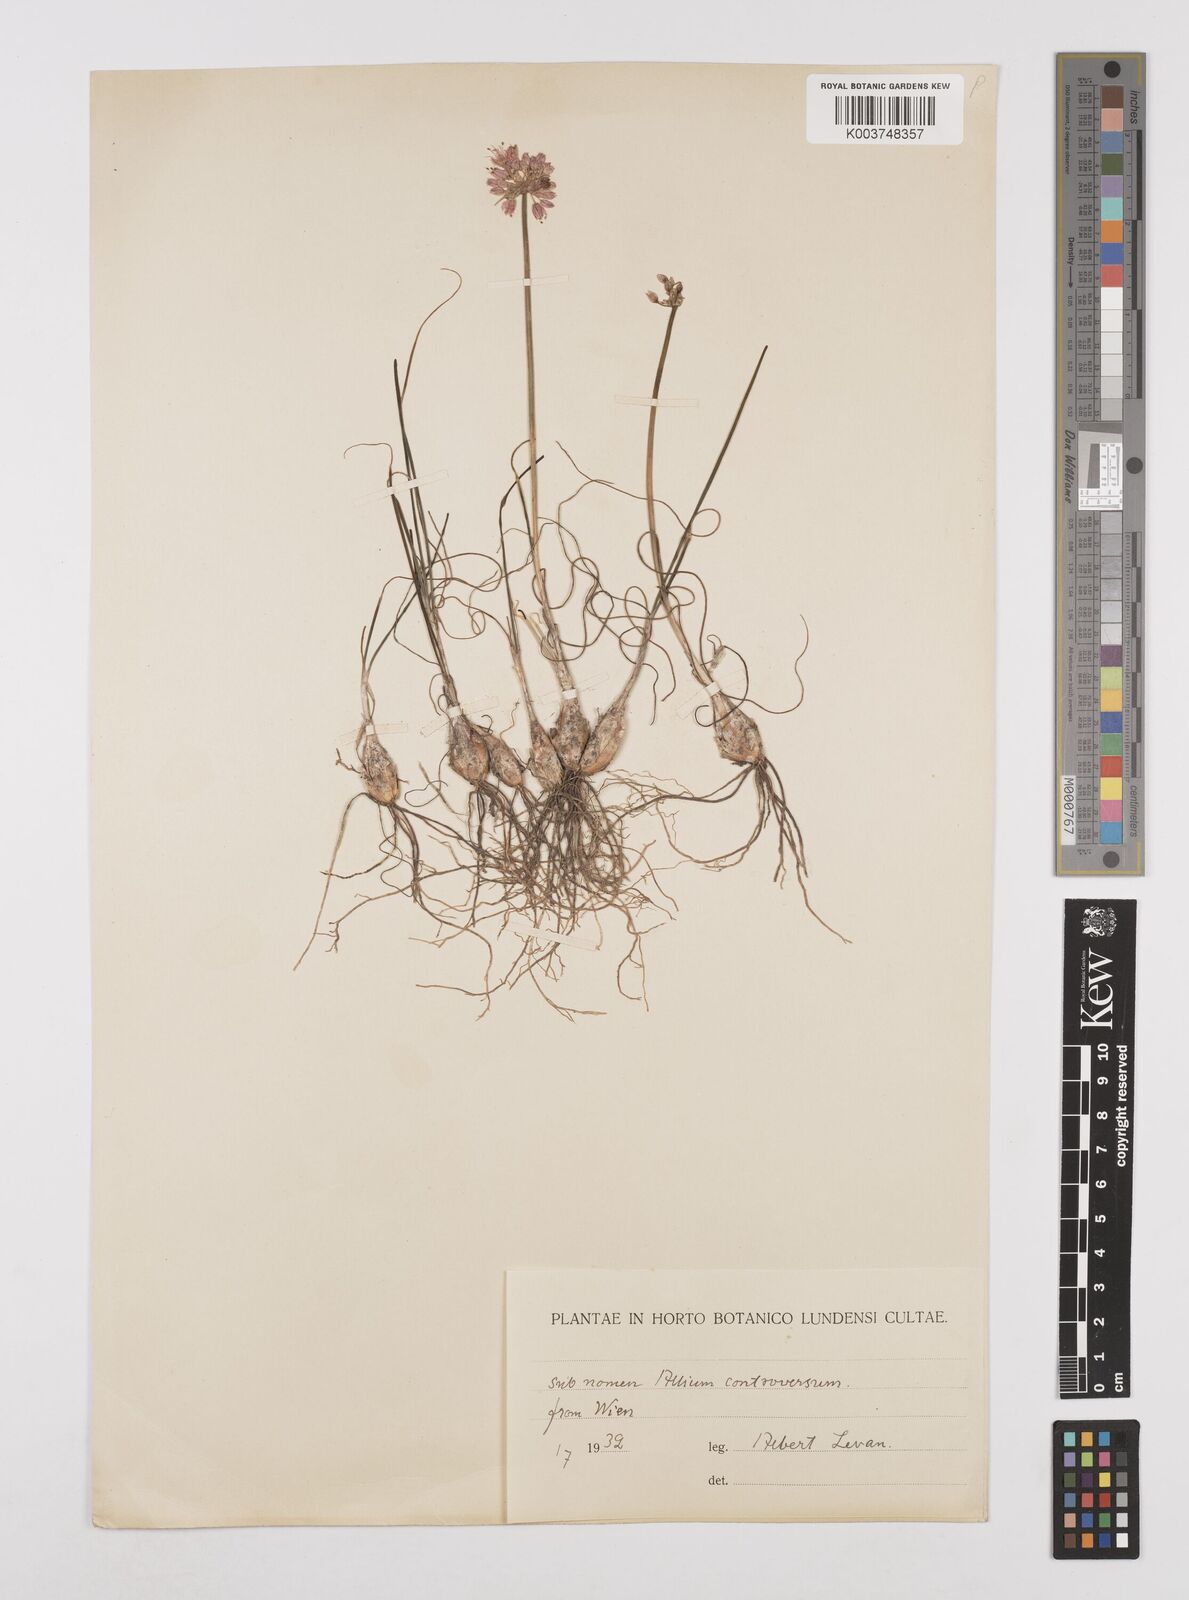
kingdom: Plantae
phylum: Tracheophyta
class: Liliopsida
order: Asparagales
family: Amaryllidaceae
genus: Allium
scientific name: Allium sativum
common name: Garlic
